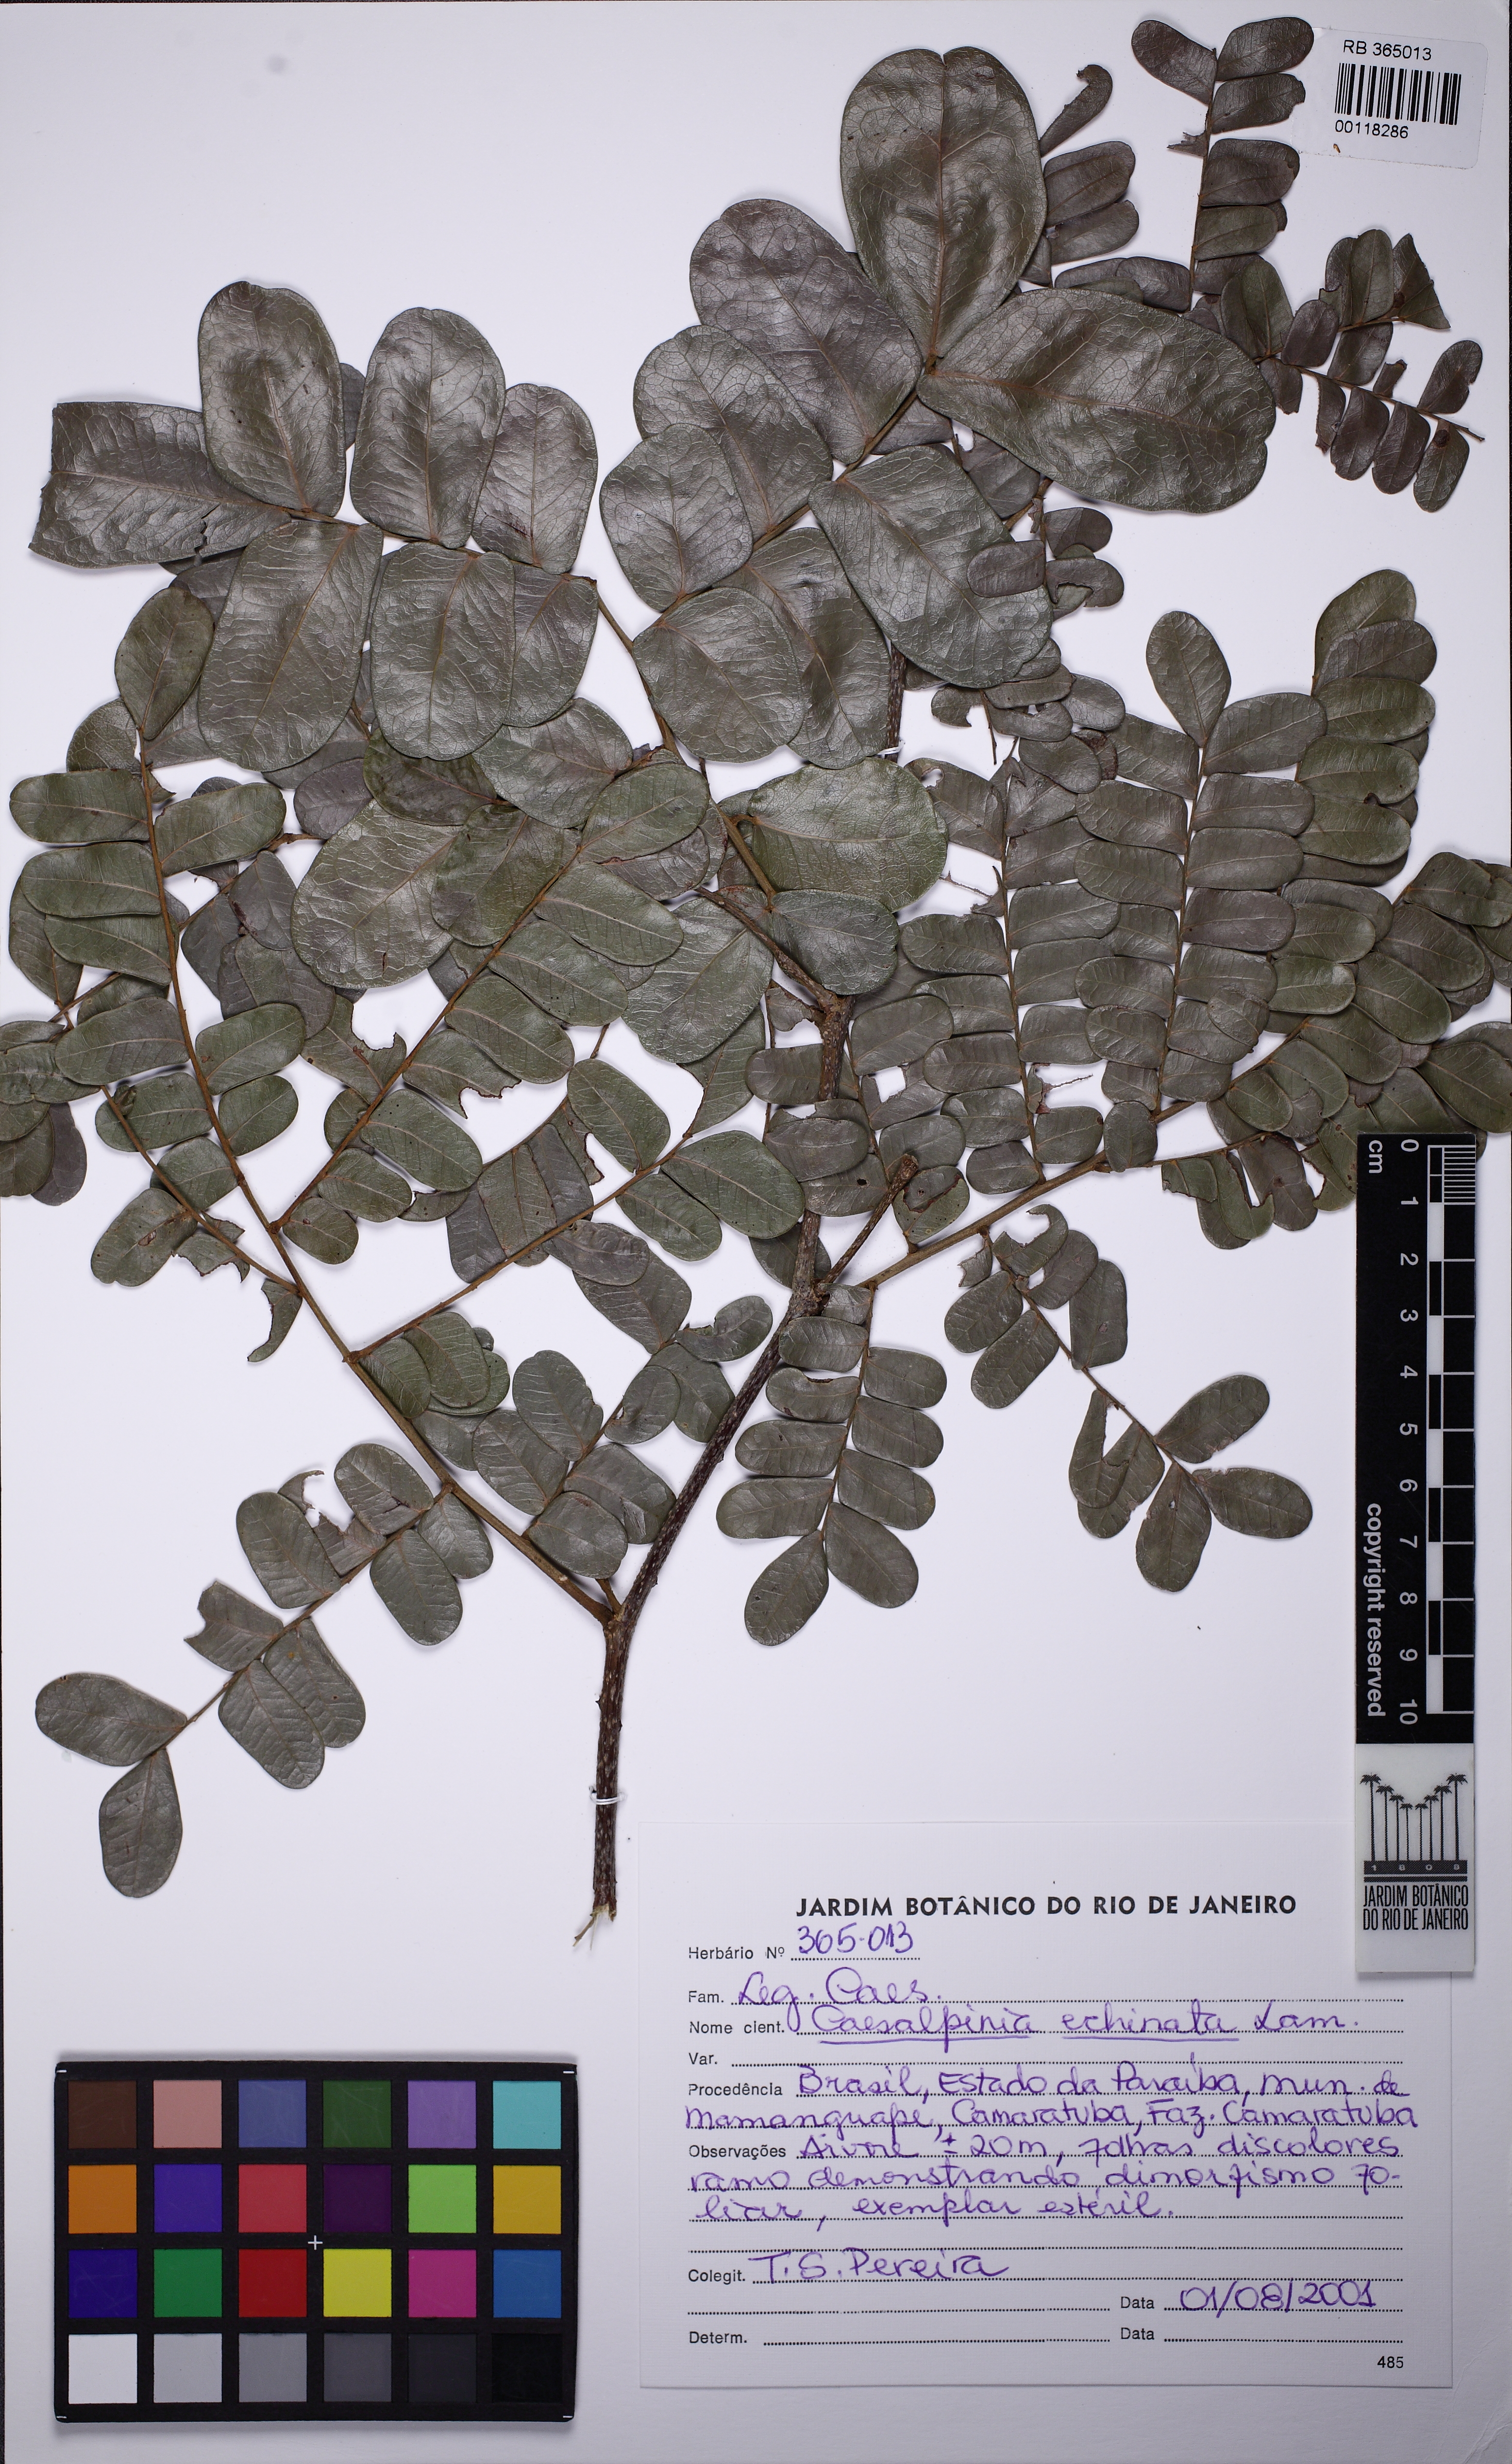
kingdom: Plantae
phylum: Tracheophyta
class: Magnoliopsida
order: Fabales
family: Fabaceae
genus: Paubrasilia
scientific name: Paubrasilia echinata
